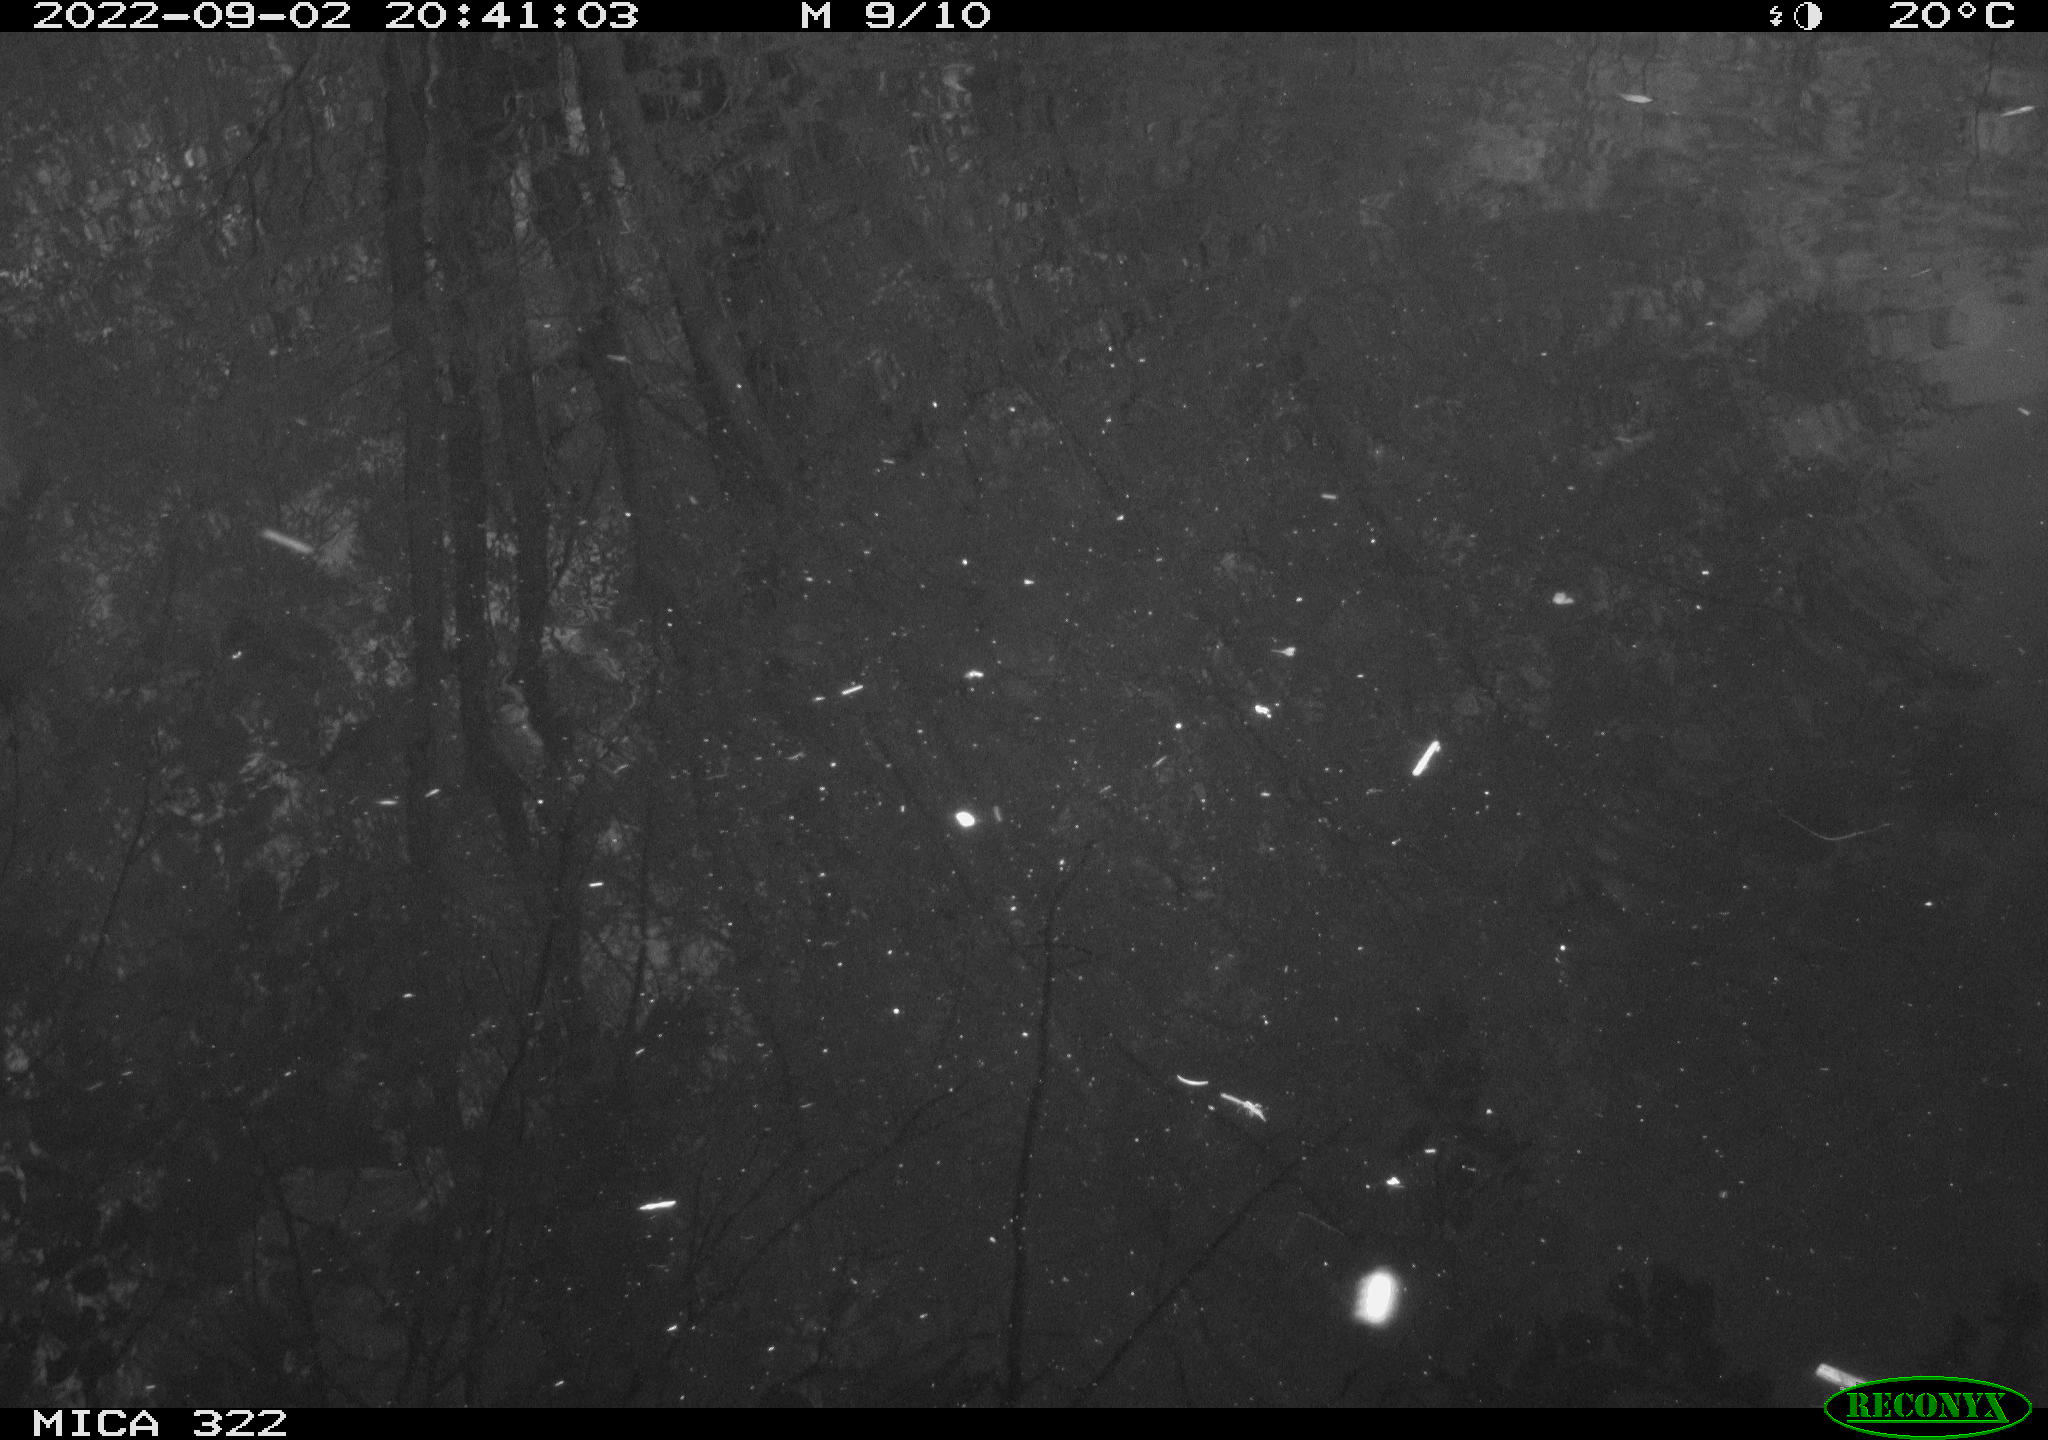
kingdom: Animalia
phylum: Chordata
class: Aves
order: Anseriformes
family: Anatidae
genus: Mareca
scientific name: Mareca strepera
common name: Gadwall
